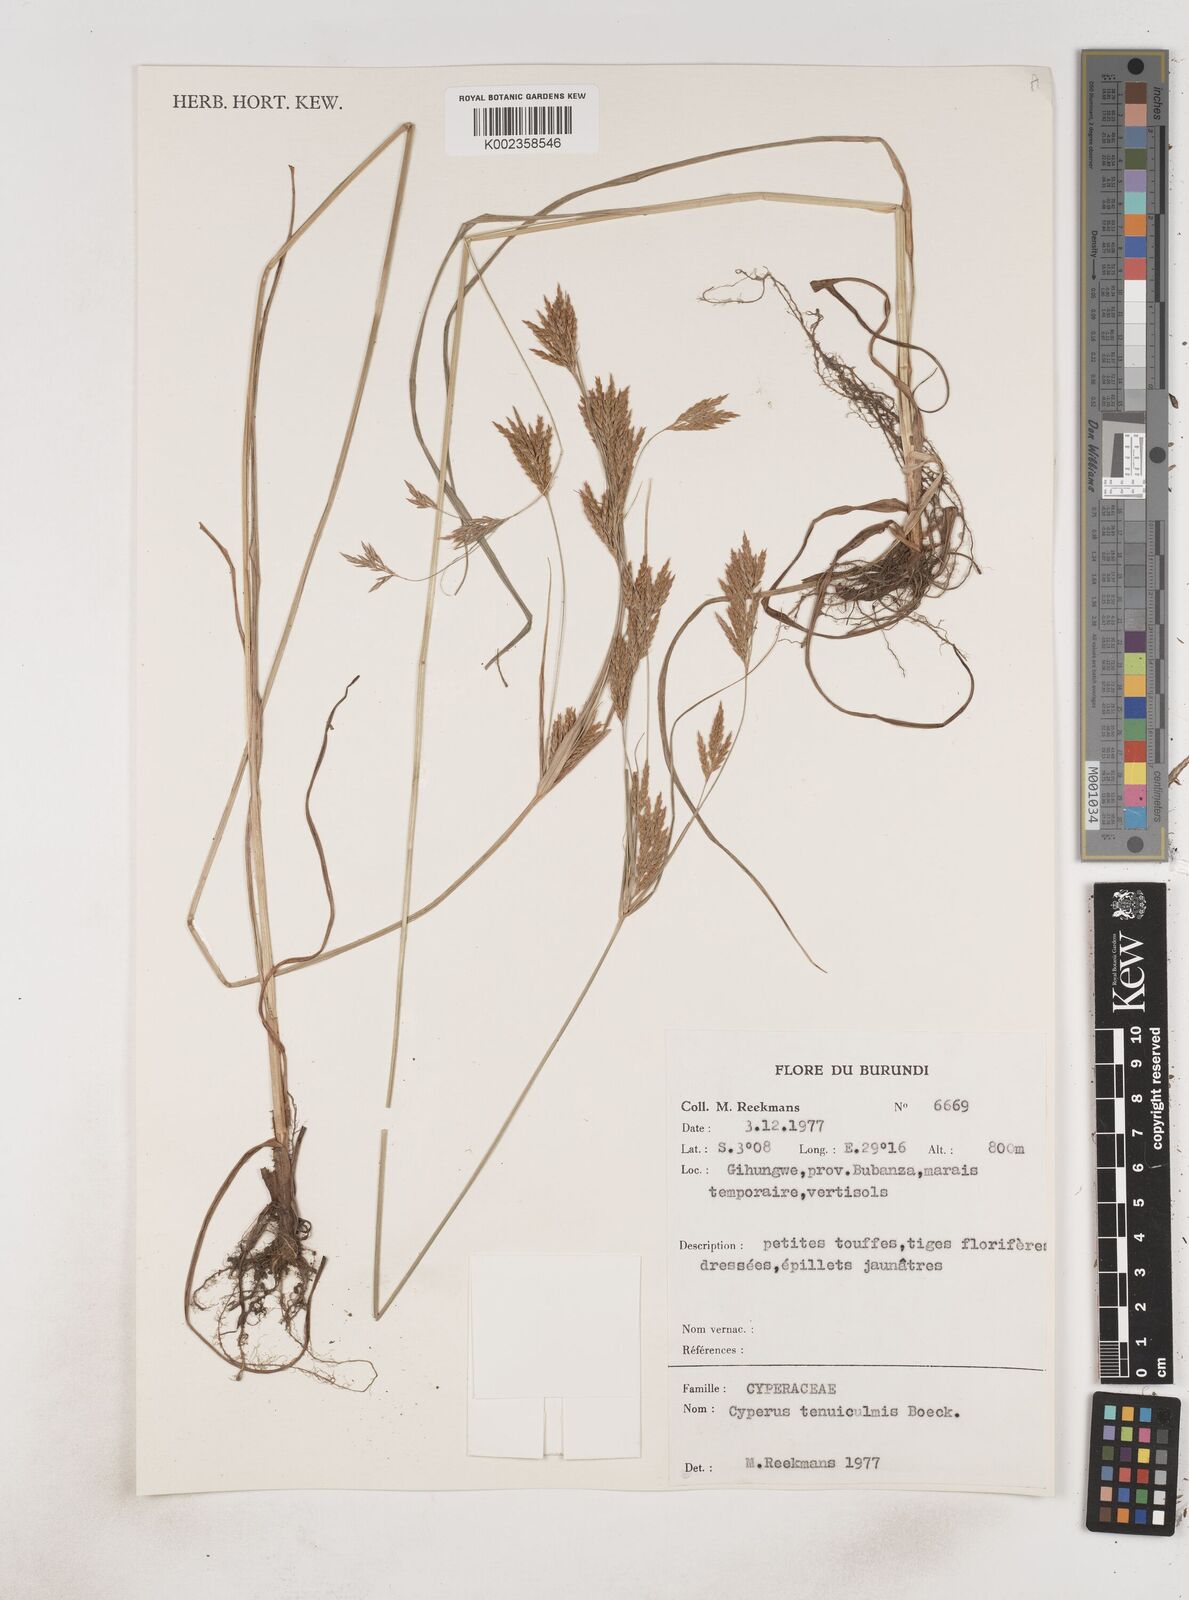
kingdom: Plantae
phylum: Tracheophyta
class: Liliopsida
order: Poales
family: Cyperaceae
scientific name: Cyperaceae
